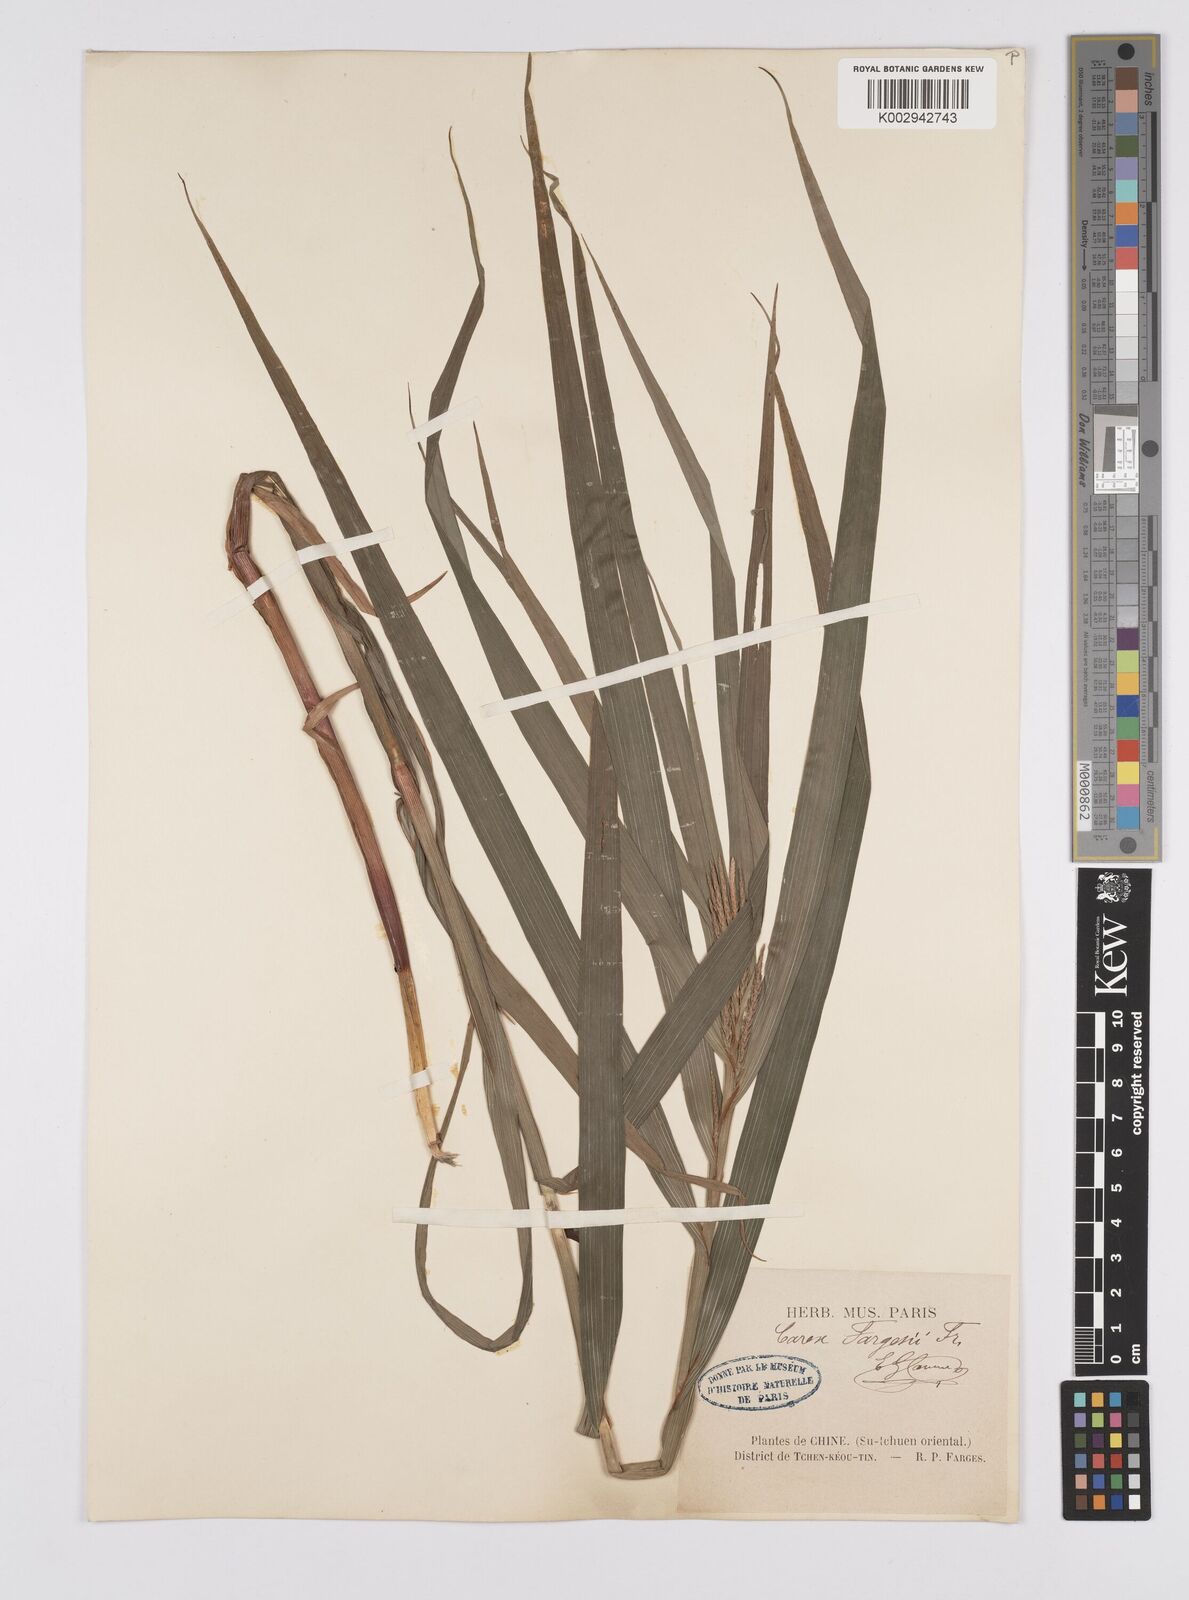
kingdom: Plantae
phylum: Tracheophyta
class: Liliopsida
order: Poales
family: Cyperaceae
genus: Carex
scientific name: Carex ligulata
